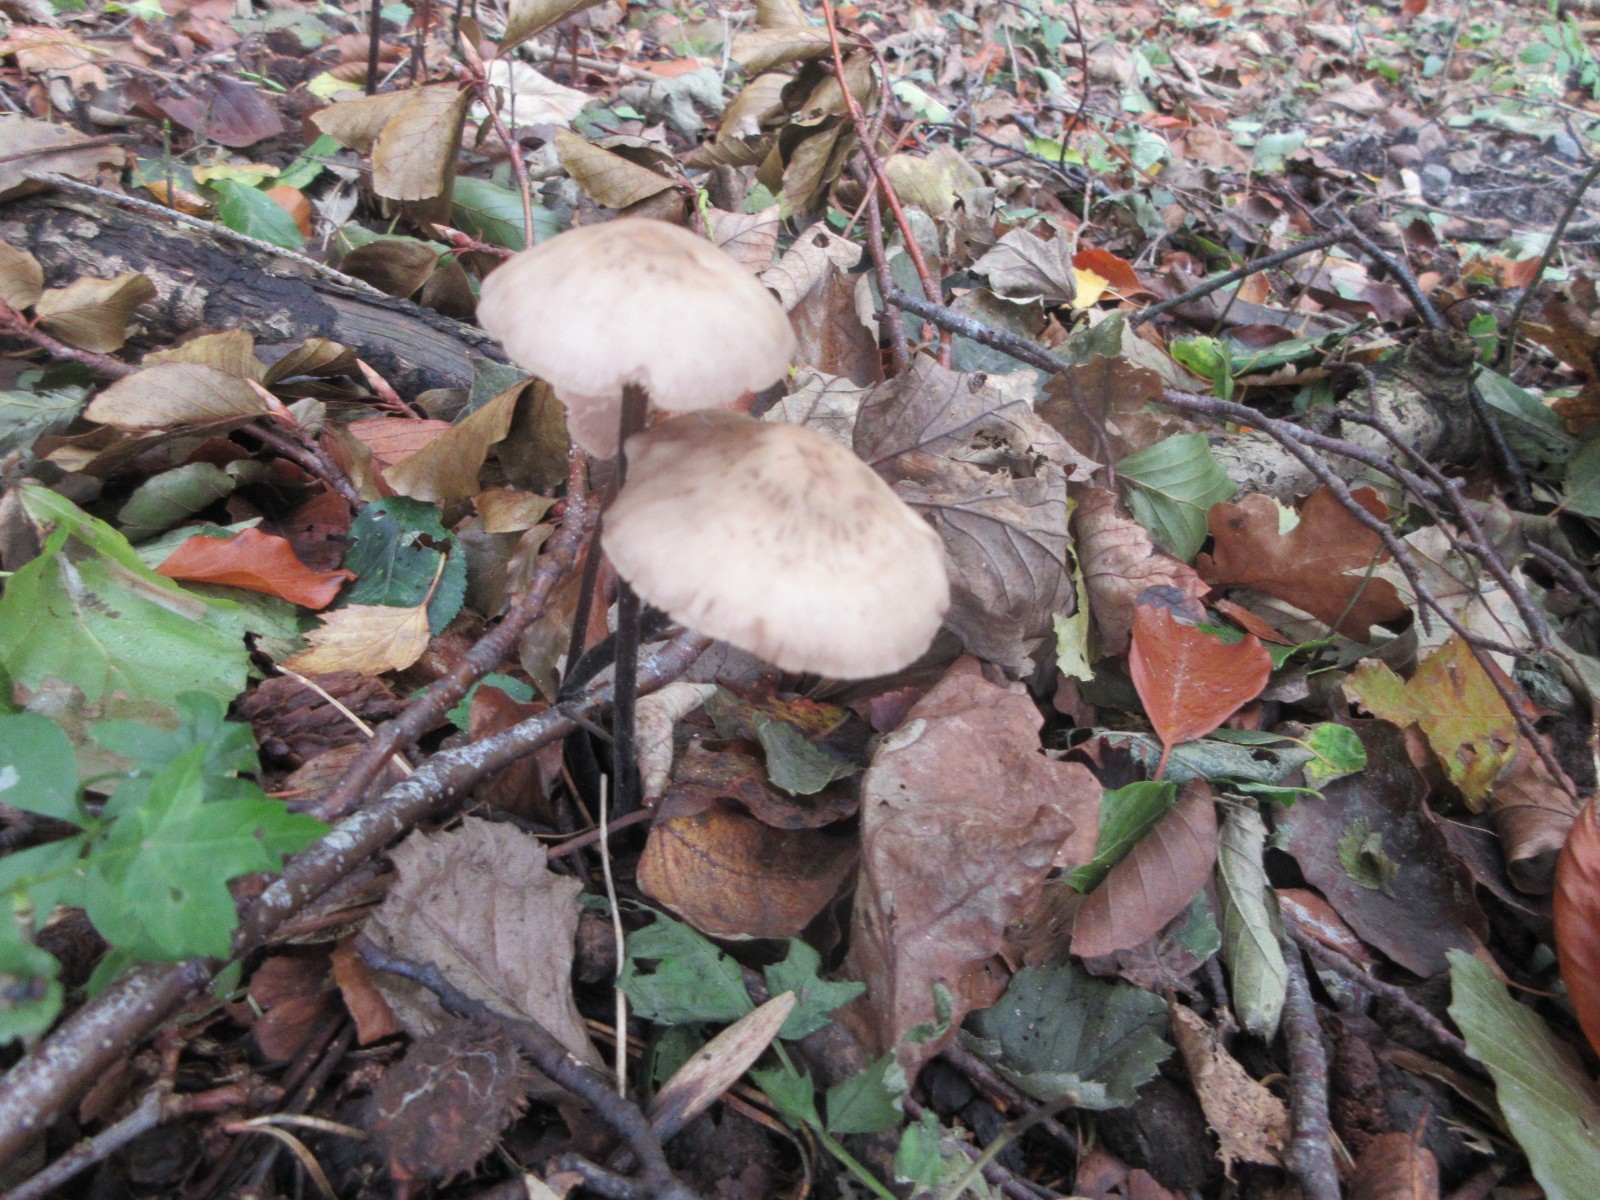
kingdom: Fungi
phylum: Basidiomycota
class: Agaricomycetes
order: Agaricales
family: Omphalotaceae
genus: Mycetinis
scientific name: Mycetinis alliaceus
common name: stor løghat
